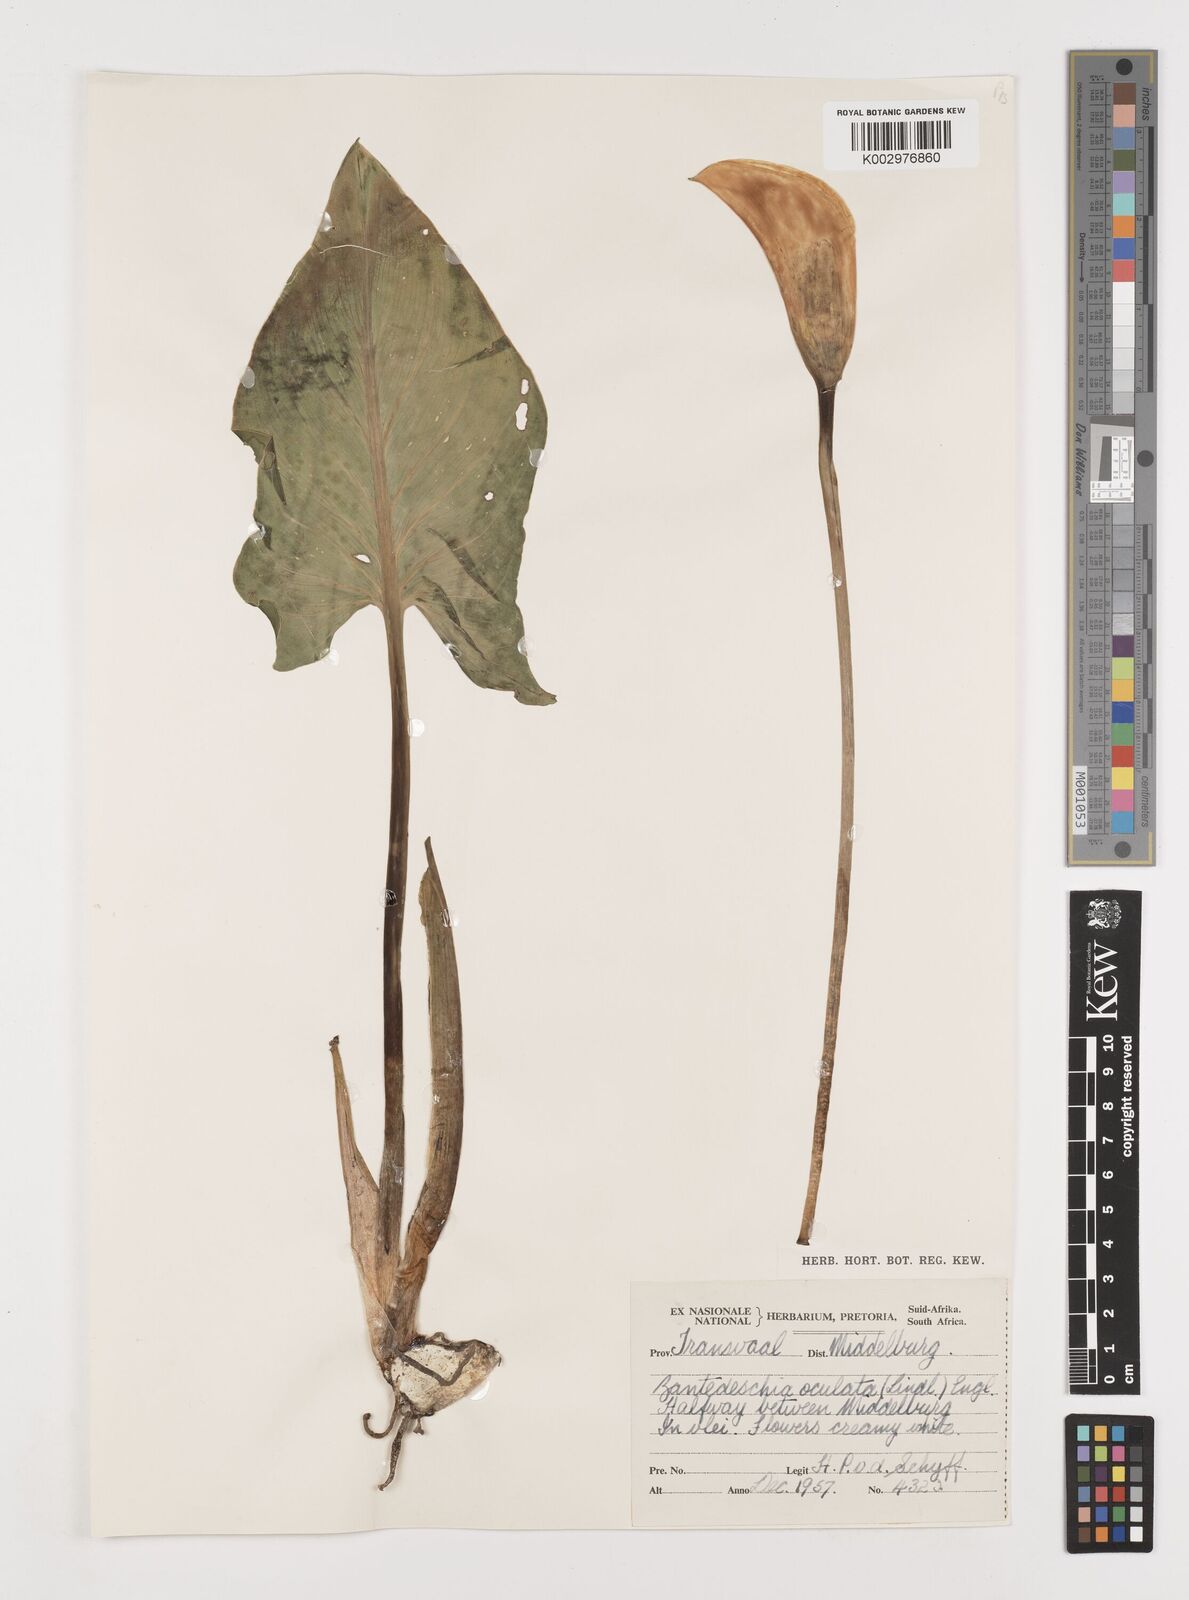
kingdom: Plantae
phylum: Tracheophyta
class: Liliopsida
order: Alismatales
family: Araceae
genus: Zantedeschia
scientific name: Zantedeschia albomaculata
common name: Spotted calla lily
